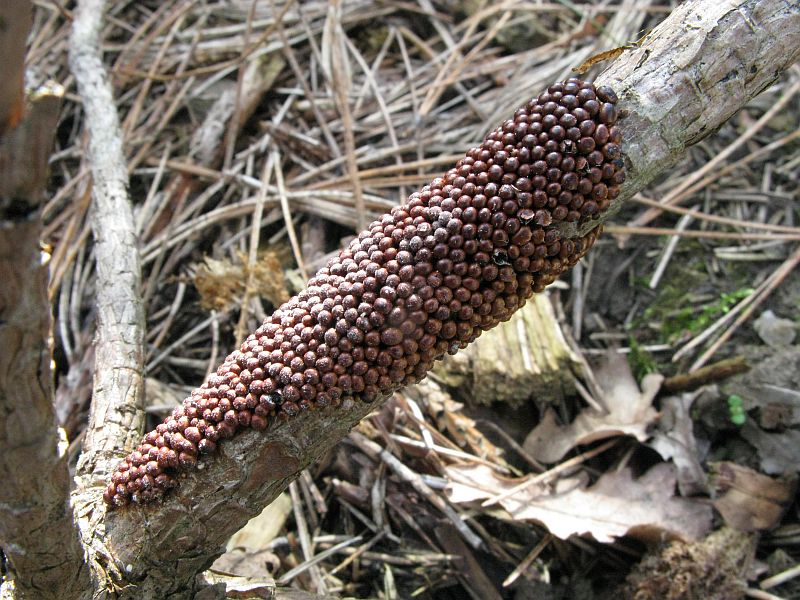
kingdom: Protozoa
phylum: Mycetozoa
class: Myxomycetes
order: Physarales
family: Physaraceae
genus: Leocarpus
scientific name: Leocarpus fragilis
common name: poleret glatfrø
